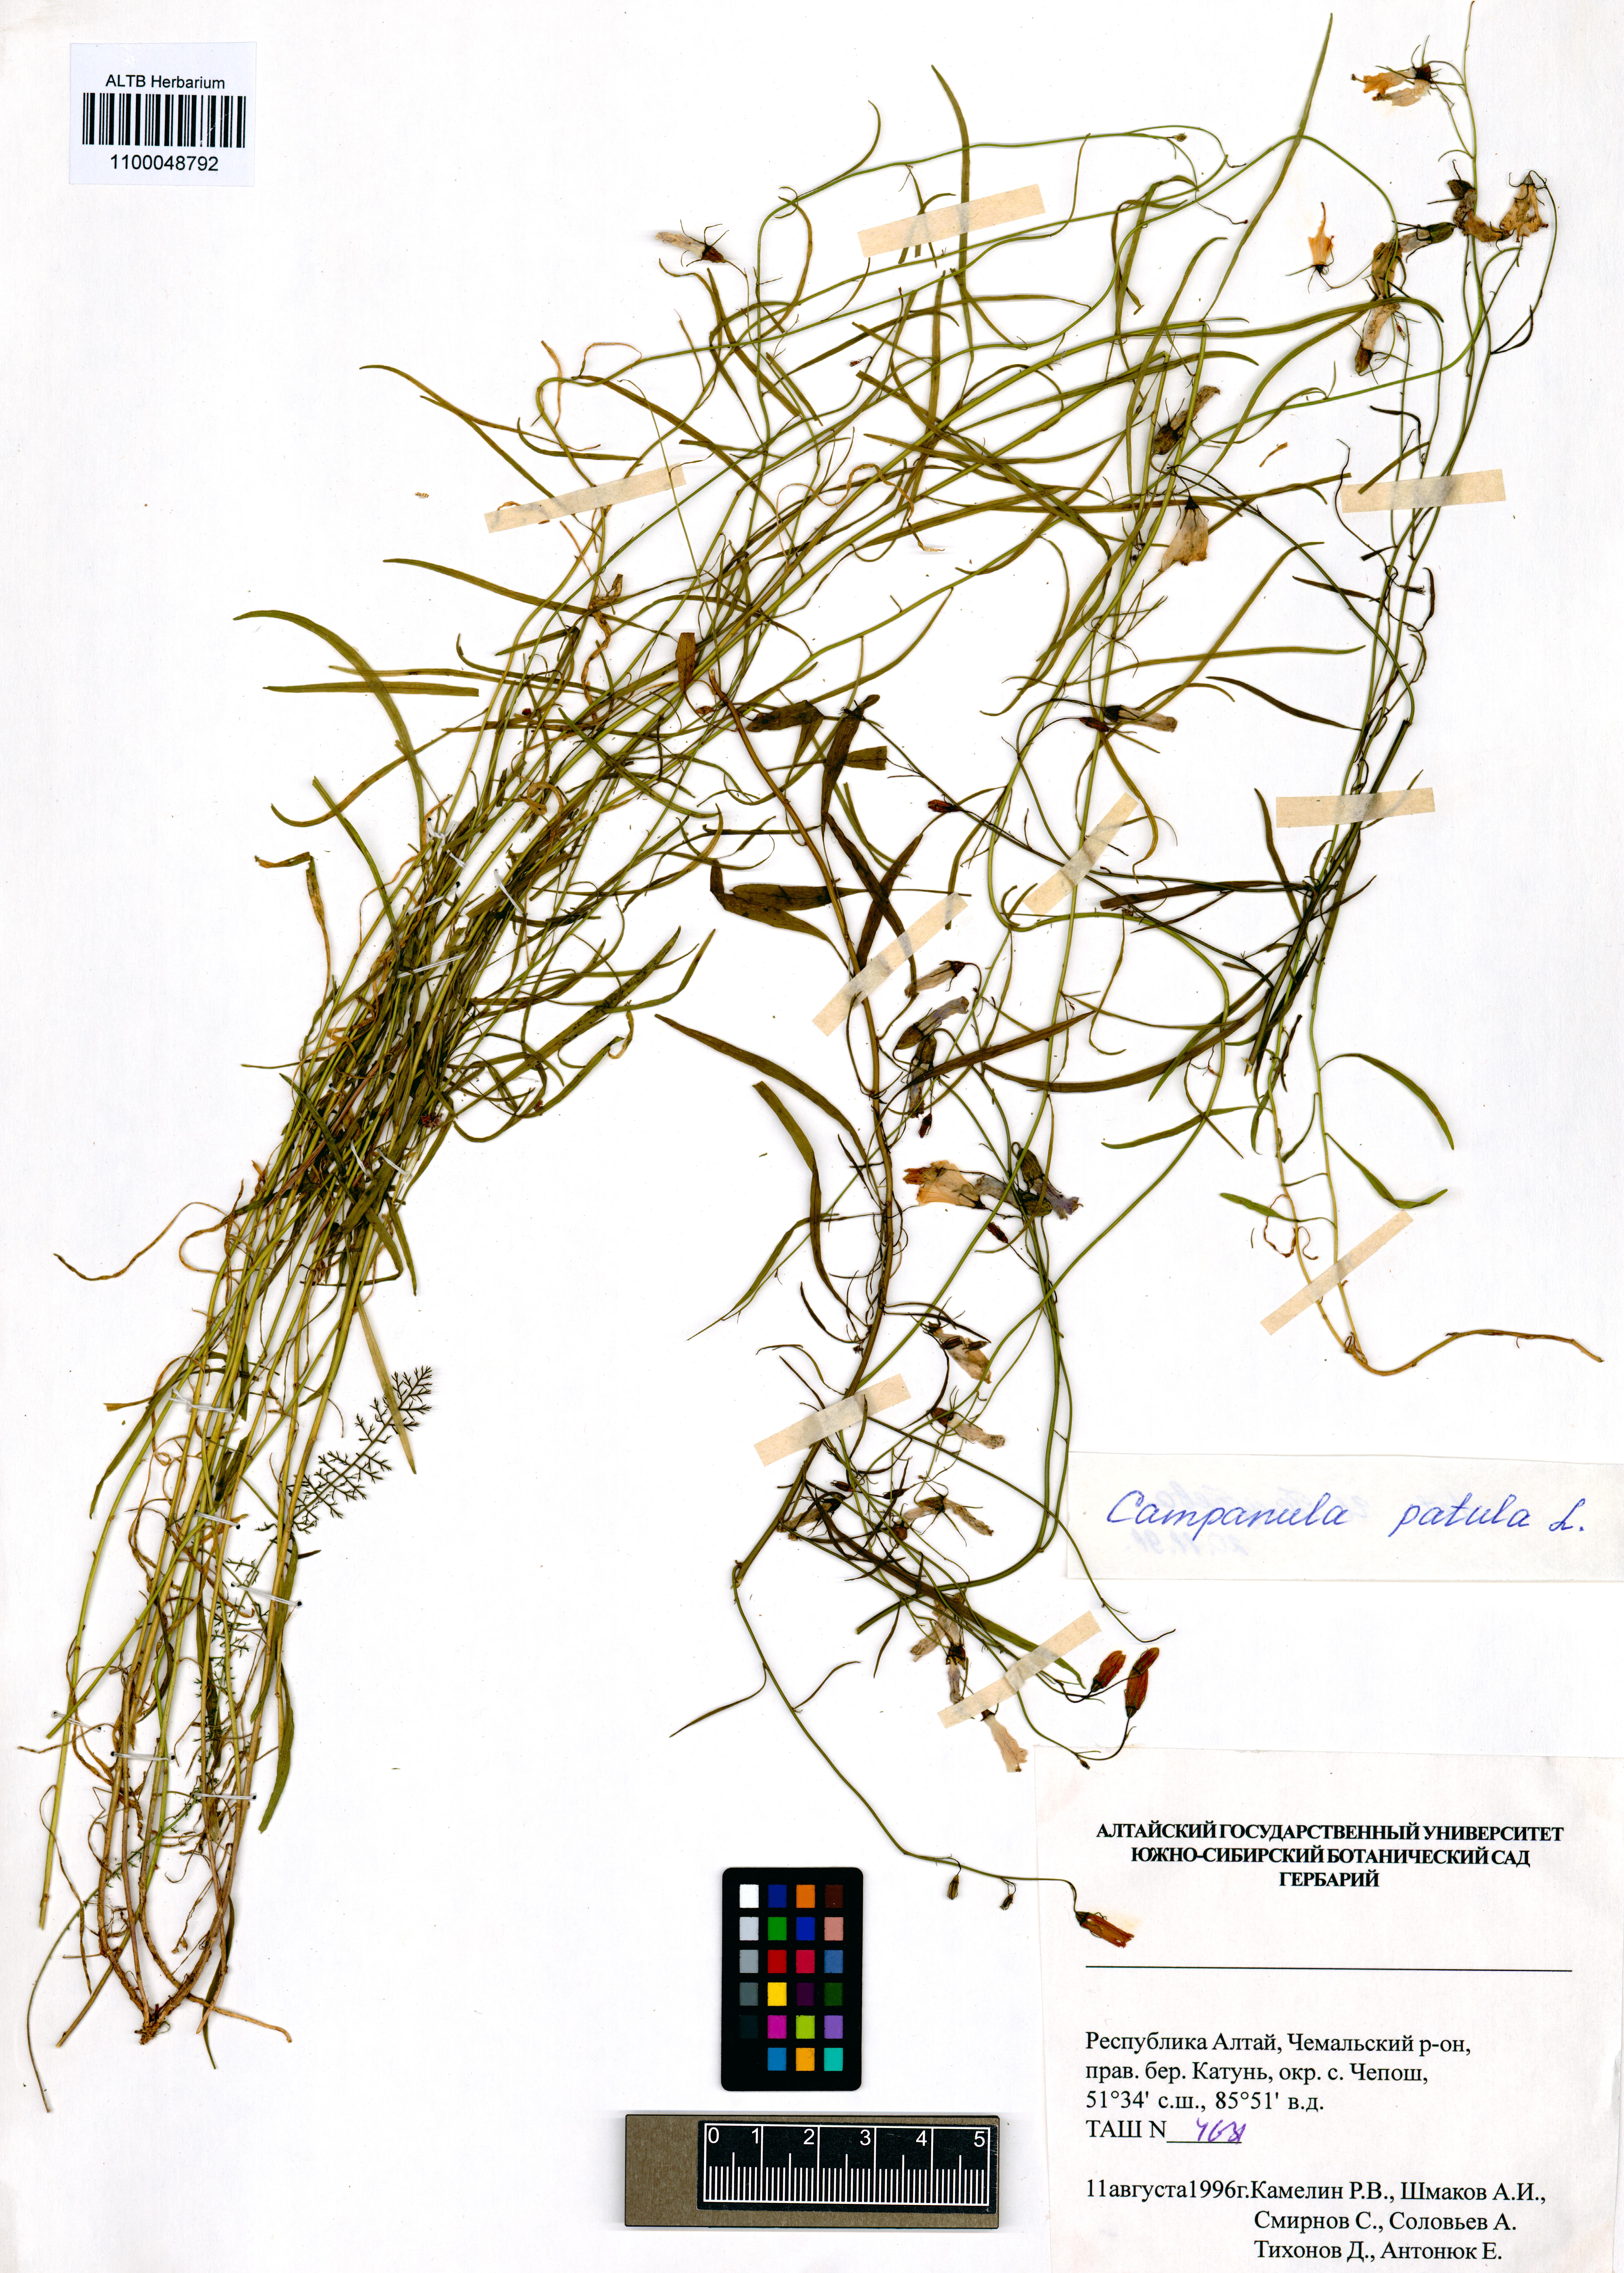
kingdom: Plantae
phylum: Tracheophyta
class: Magnoliopsida
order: Asterales
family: Campanulaceae
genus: Campanula
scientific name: Campanula patula
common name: Spreading bellflower
